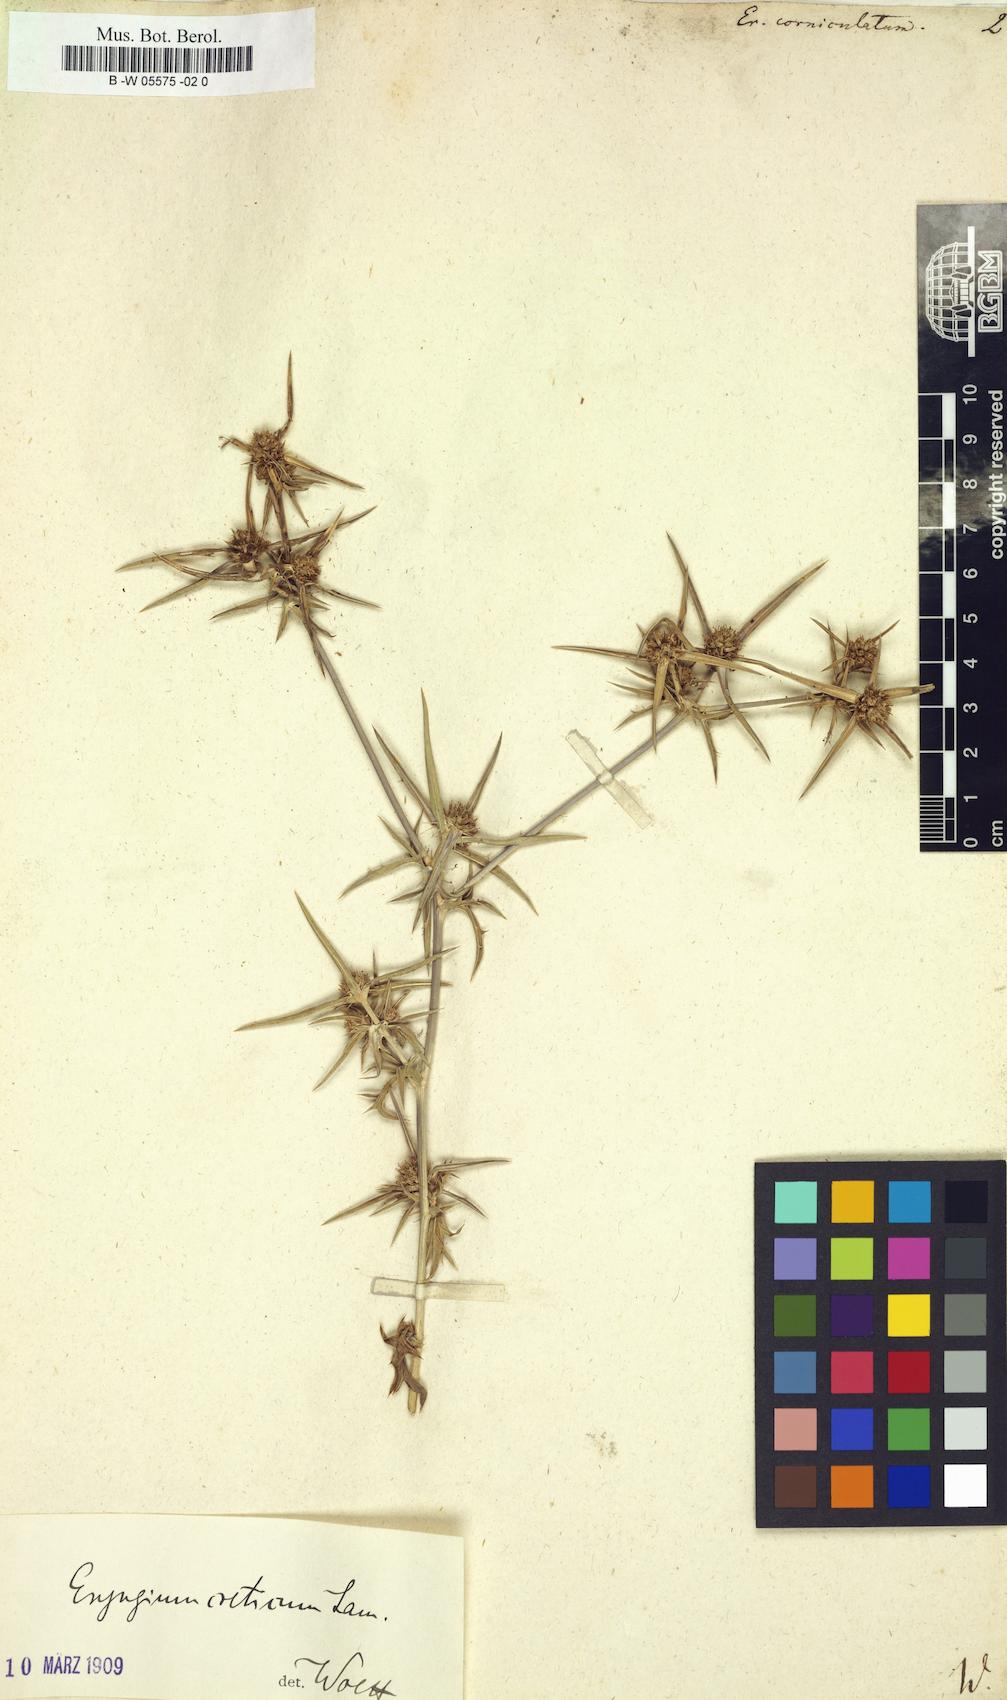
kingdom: Plantae
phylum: Tracheophyta
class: Magnoliopsida
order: Apiales
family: Apiaceae
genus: Eryngium
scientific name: Eryngium corniculatum
